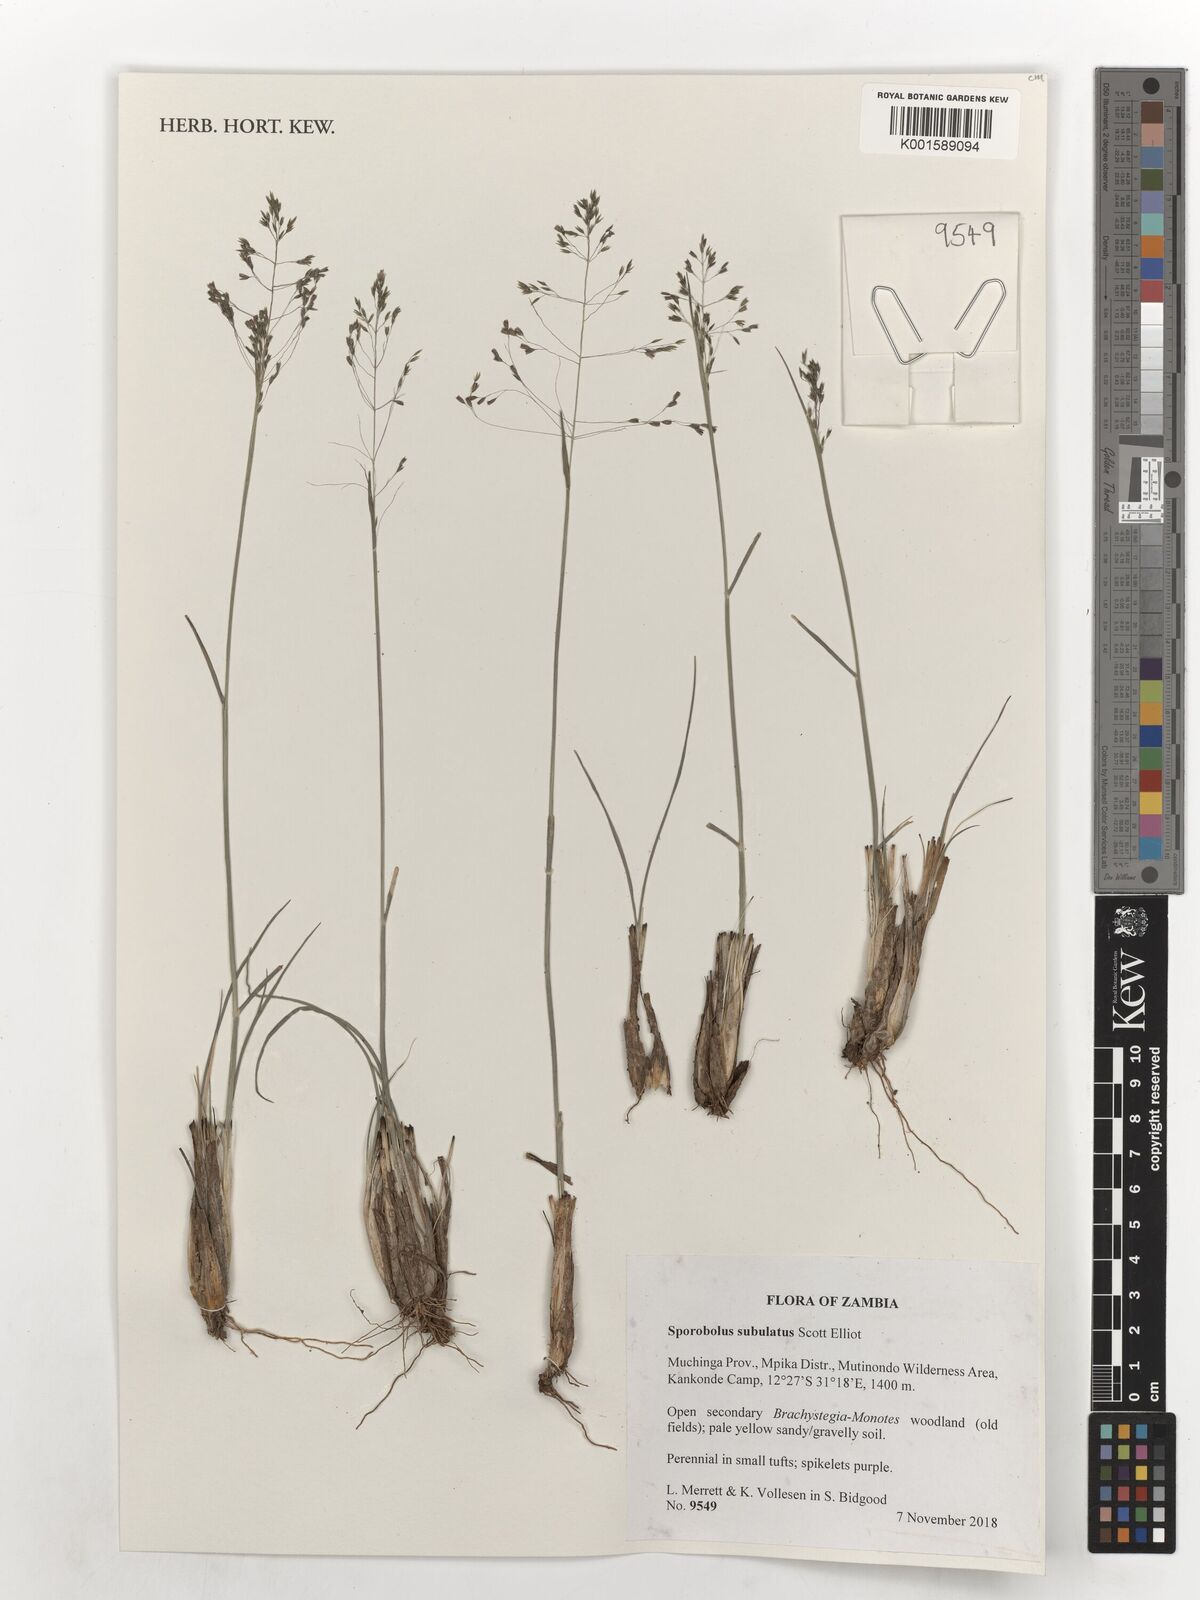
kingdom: Plantae
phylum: Tracheophyta
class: Liliopsida
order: Poales
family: Poaceae
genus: Sporobolus
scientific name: Sporobolus subulatus
